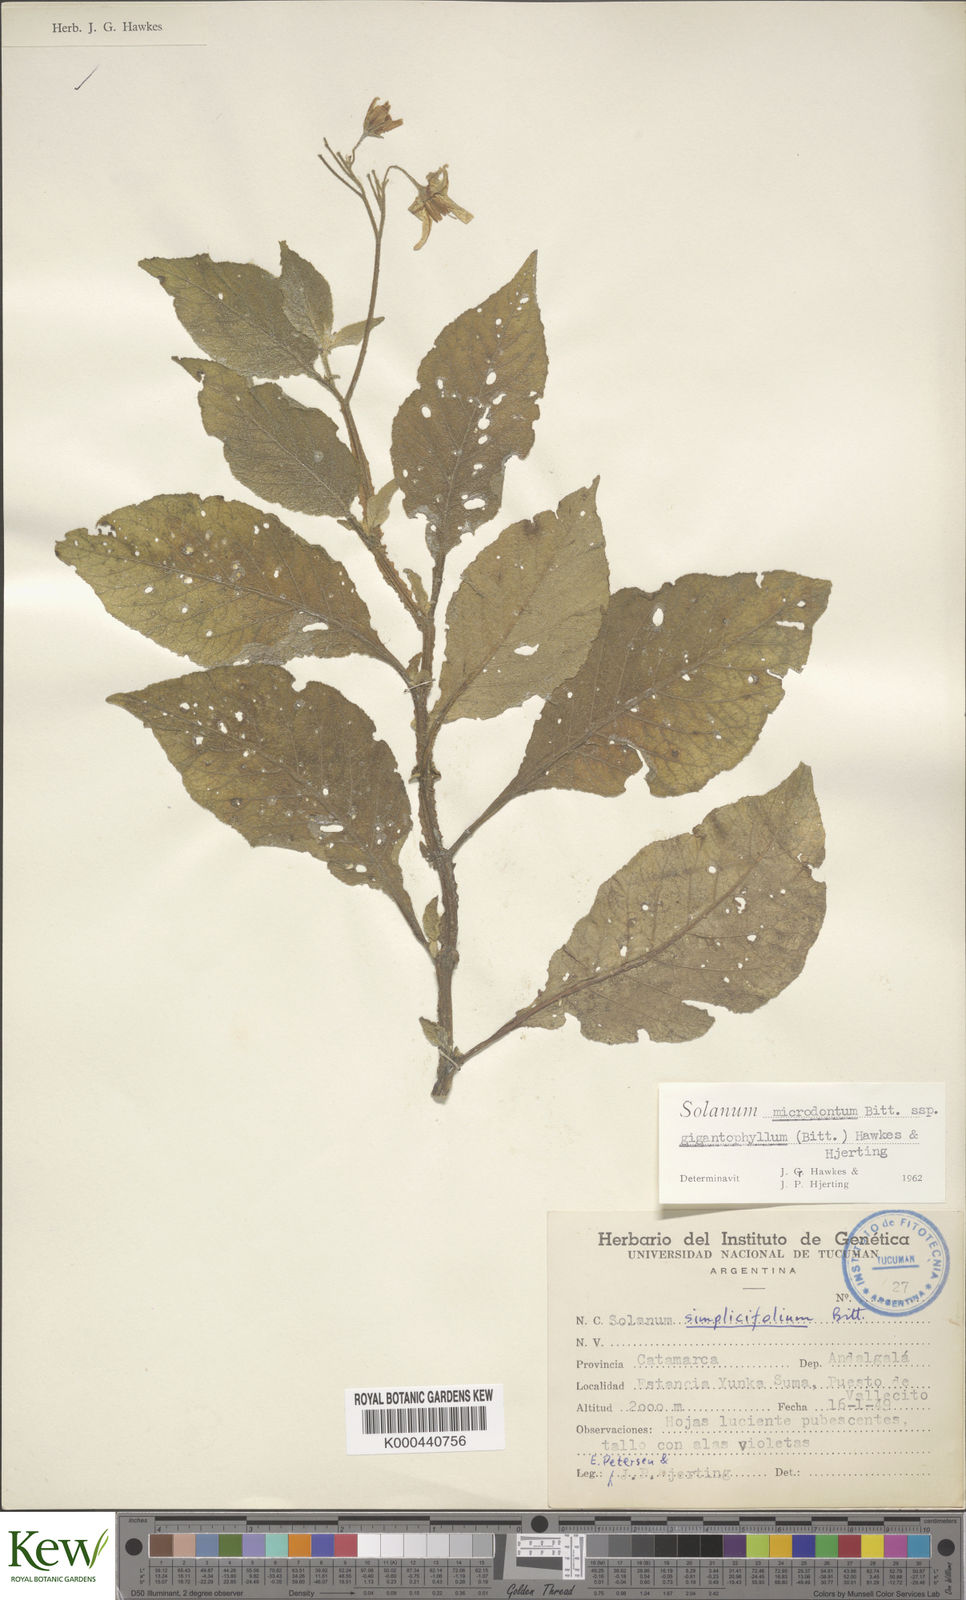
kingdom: Plantae
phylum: Tracheophyta
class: Magnoliopsida
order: Solanales
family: Solanaceae
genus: Solanum
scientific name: Solanum microdontum
